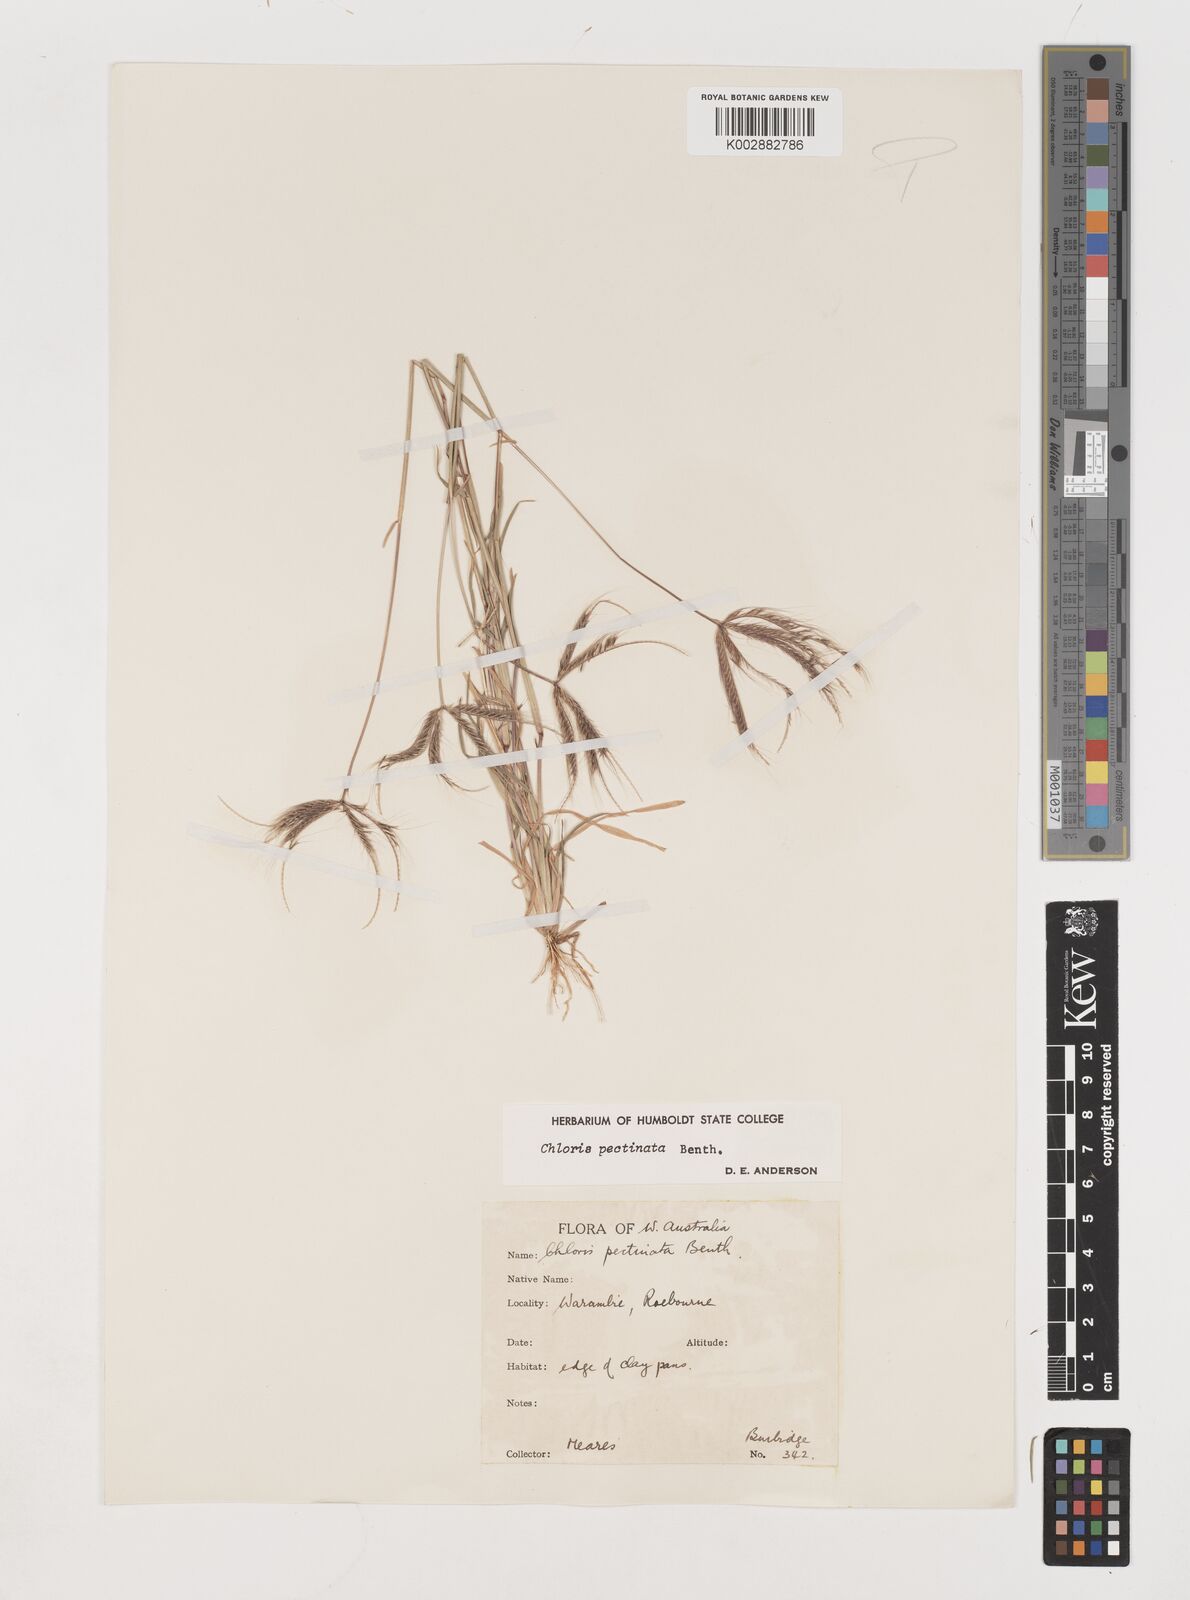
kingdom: Plantae
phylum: Tracheophyta
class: Liliopsida
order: Poales
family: Poaceae
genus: Chloris
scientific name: Chloris pectinata
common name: Comb windmill grass
